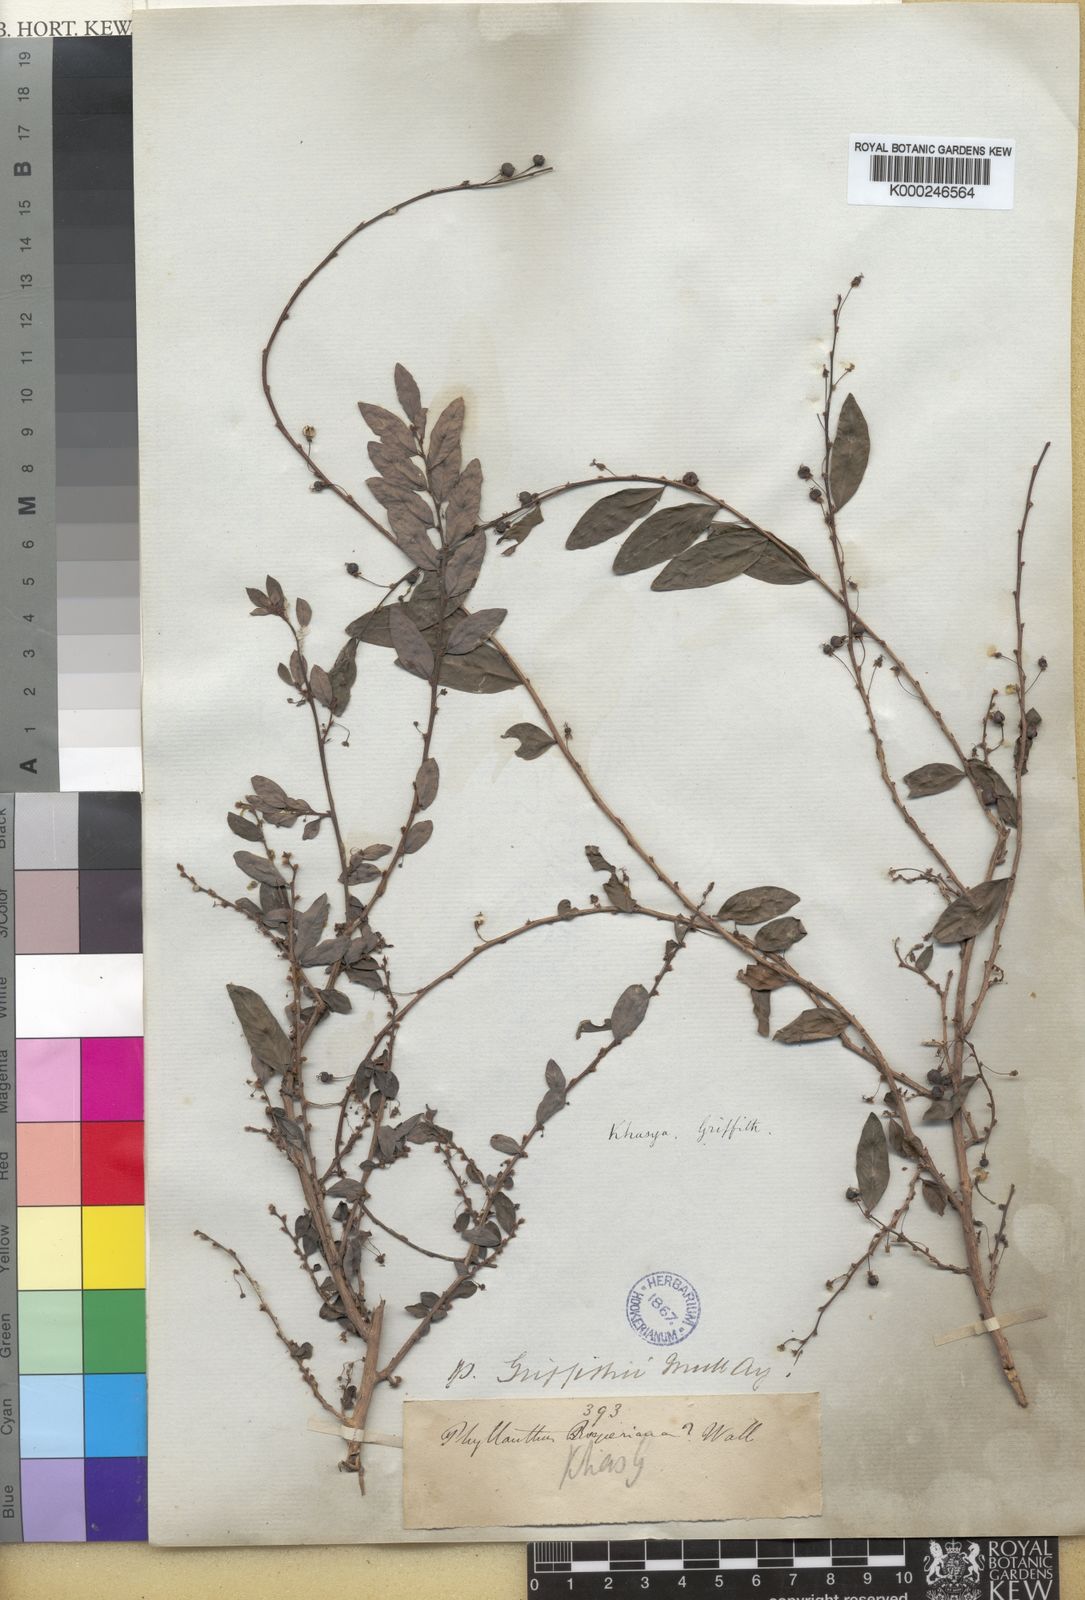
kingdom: Plantae
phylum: Tracheophyta
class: Magnoliopsida
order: Malpighiales
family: Phyllanthaceae
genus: Phyllanthus
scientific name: Phyllanthus stylosus
